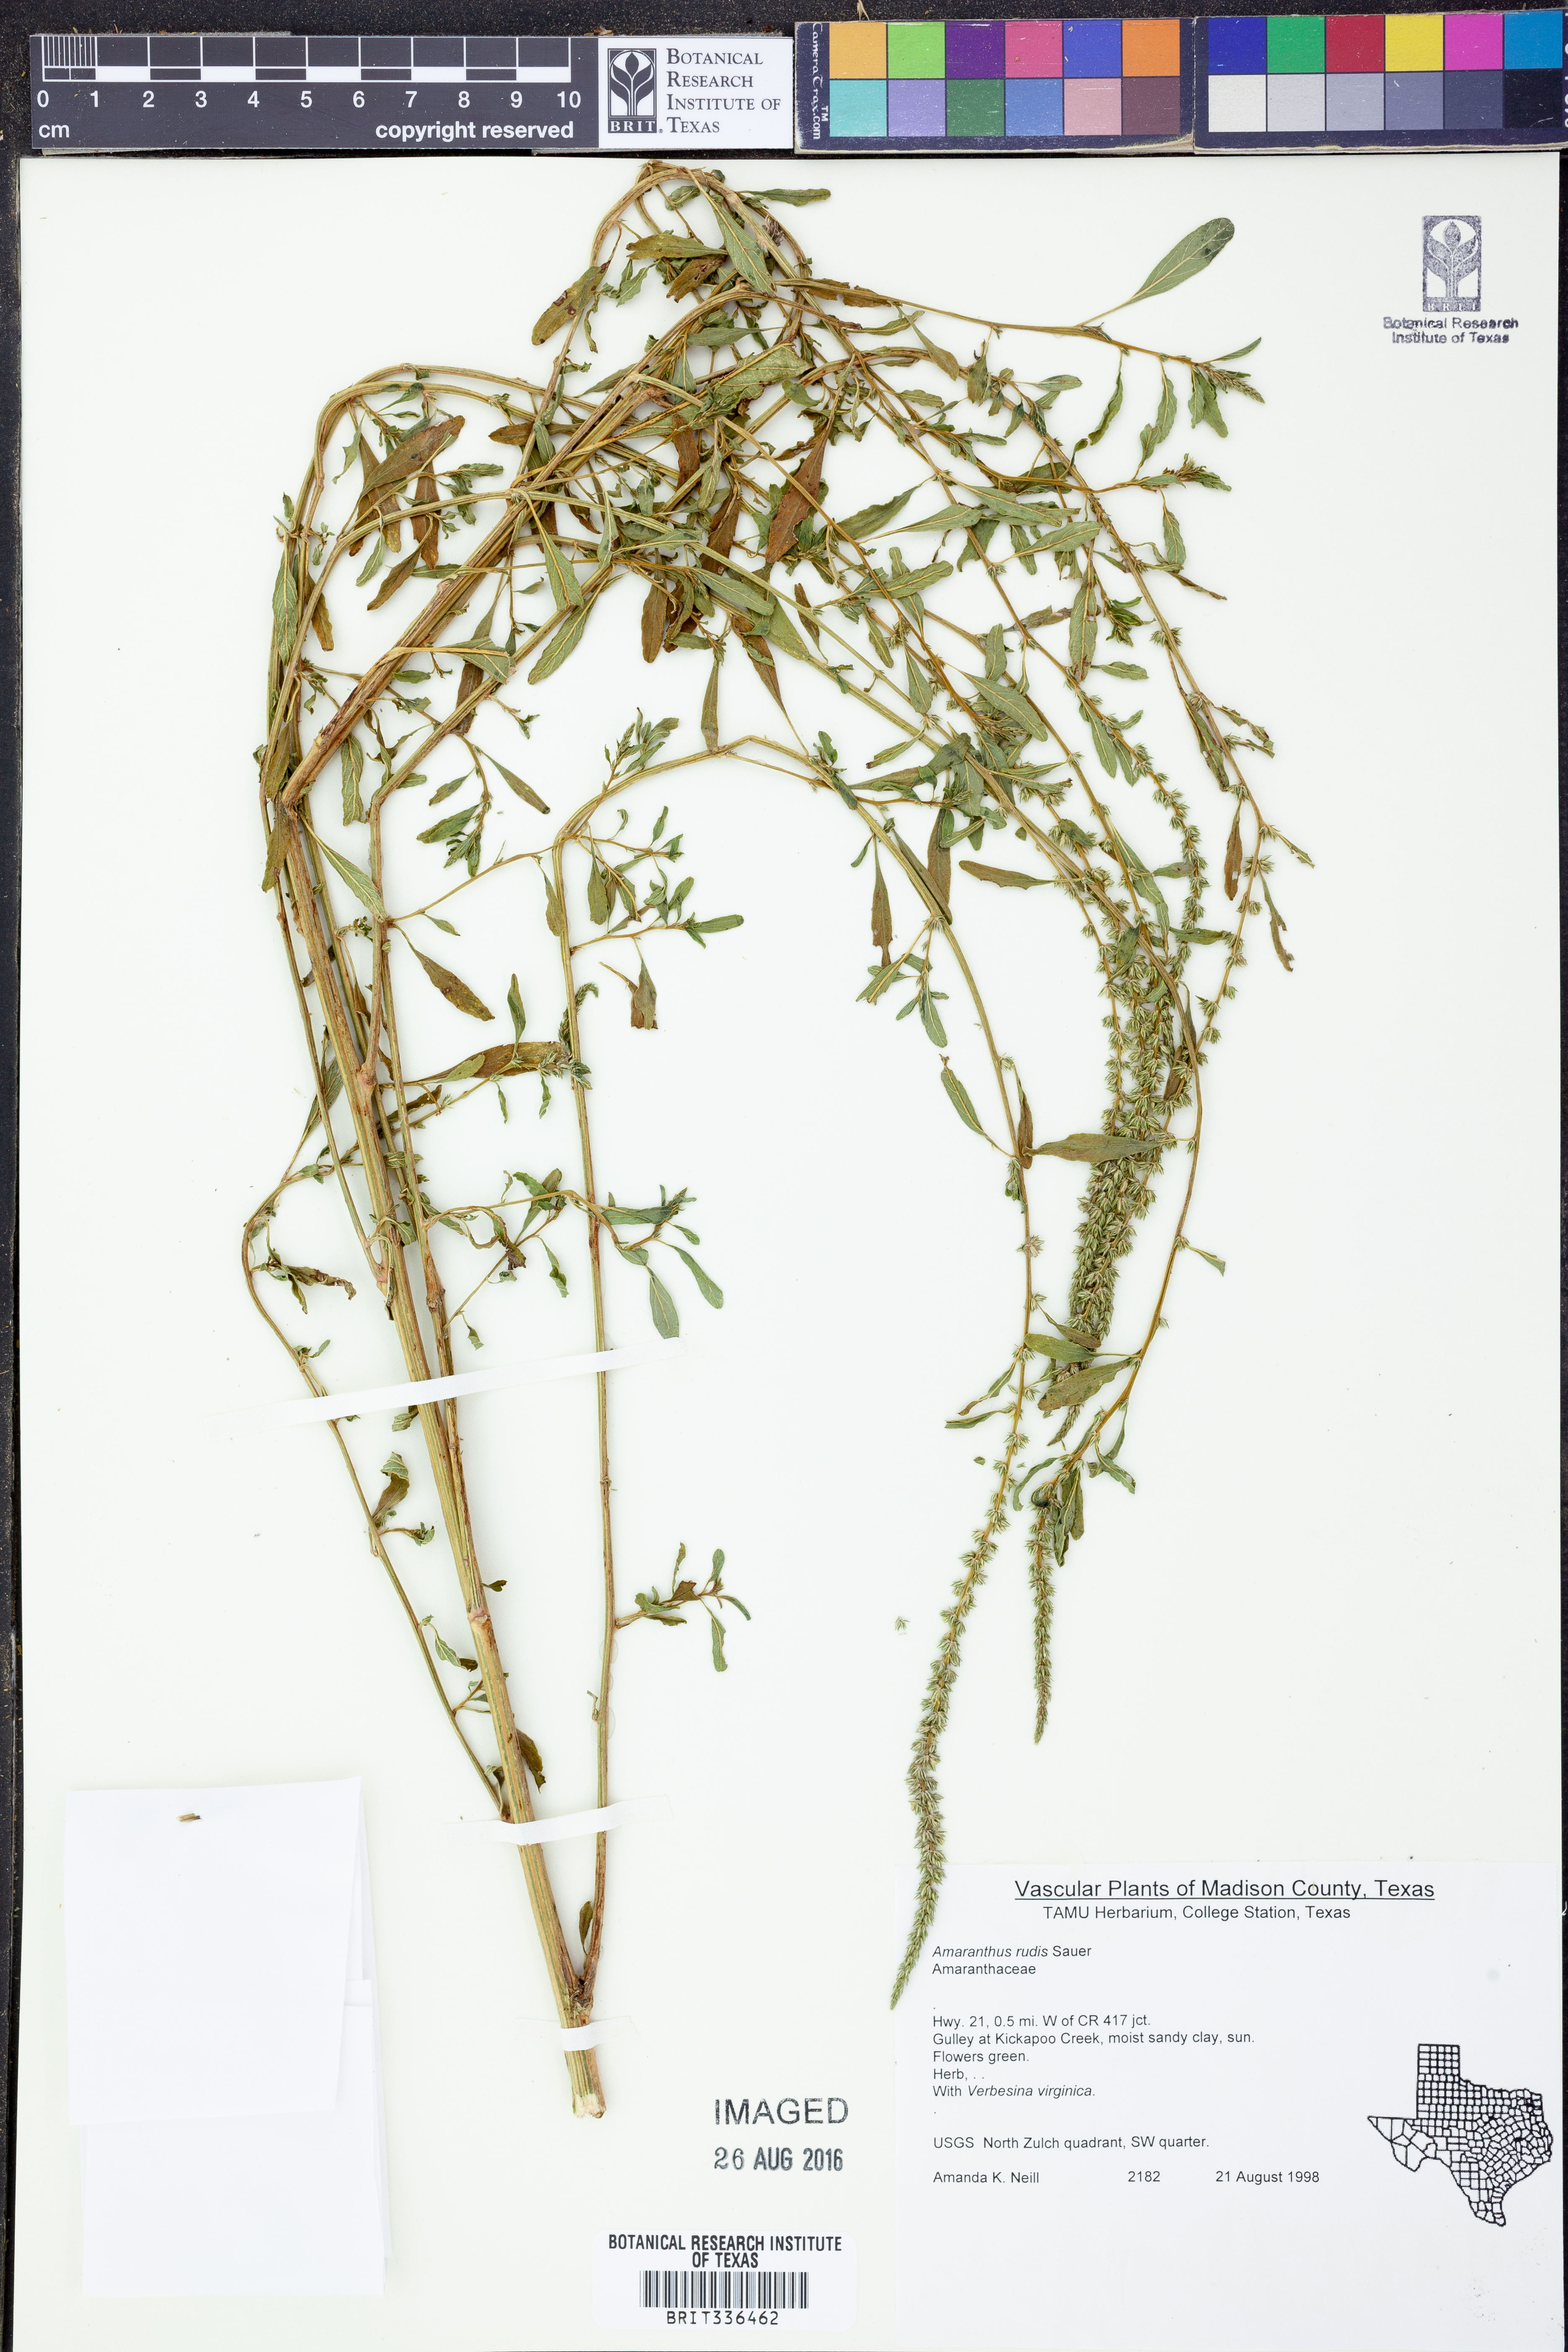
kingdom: Plantae
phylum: Tracheophyta
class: Magnoliopsida
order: Caryophyllales
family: Amaranthaceae
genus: Amaranthus
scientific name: Amaranthus tuberculatus
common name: Rough-fruit amaranth
